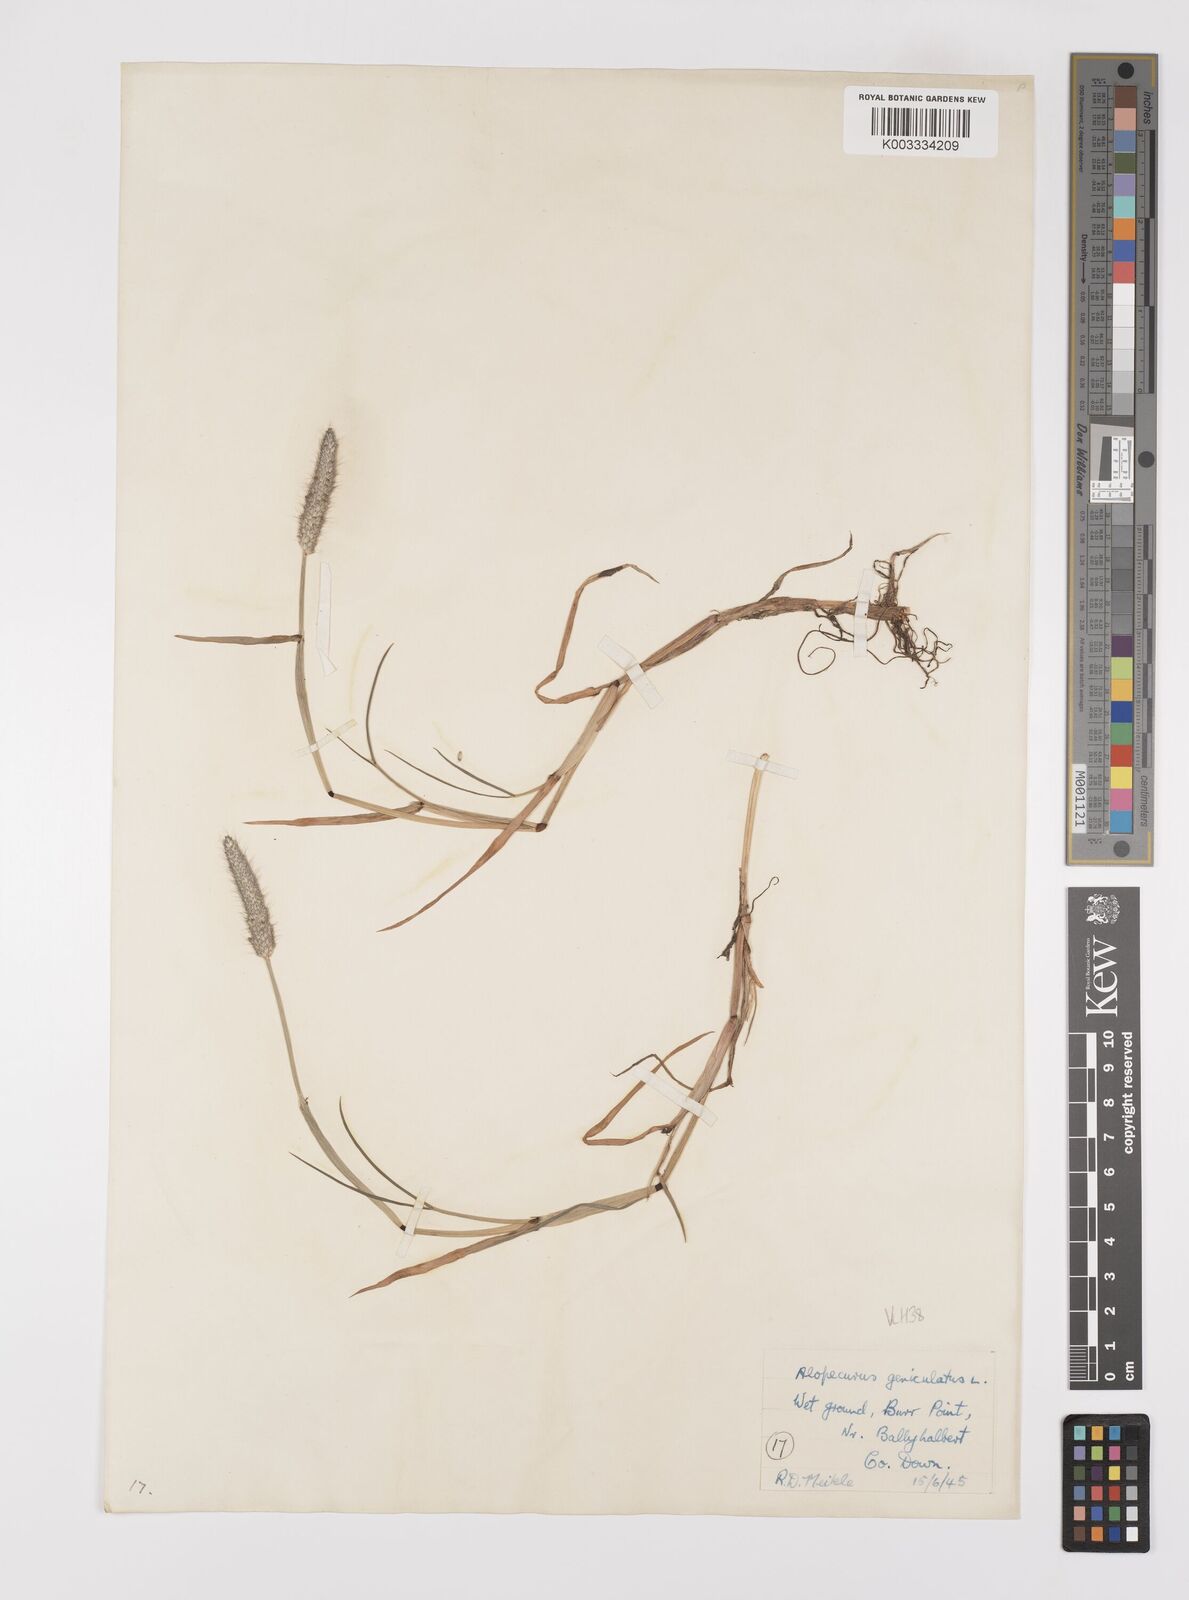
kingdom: Plantae
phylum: Tracheophyta
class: Liliopsida
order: Poales
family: Poaceae
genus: Alopecurus
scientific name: Alopecurus geniculatus
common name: Water foxtail
